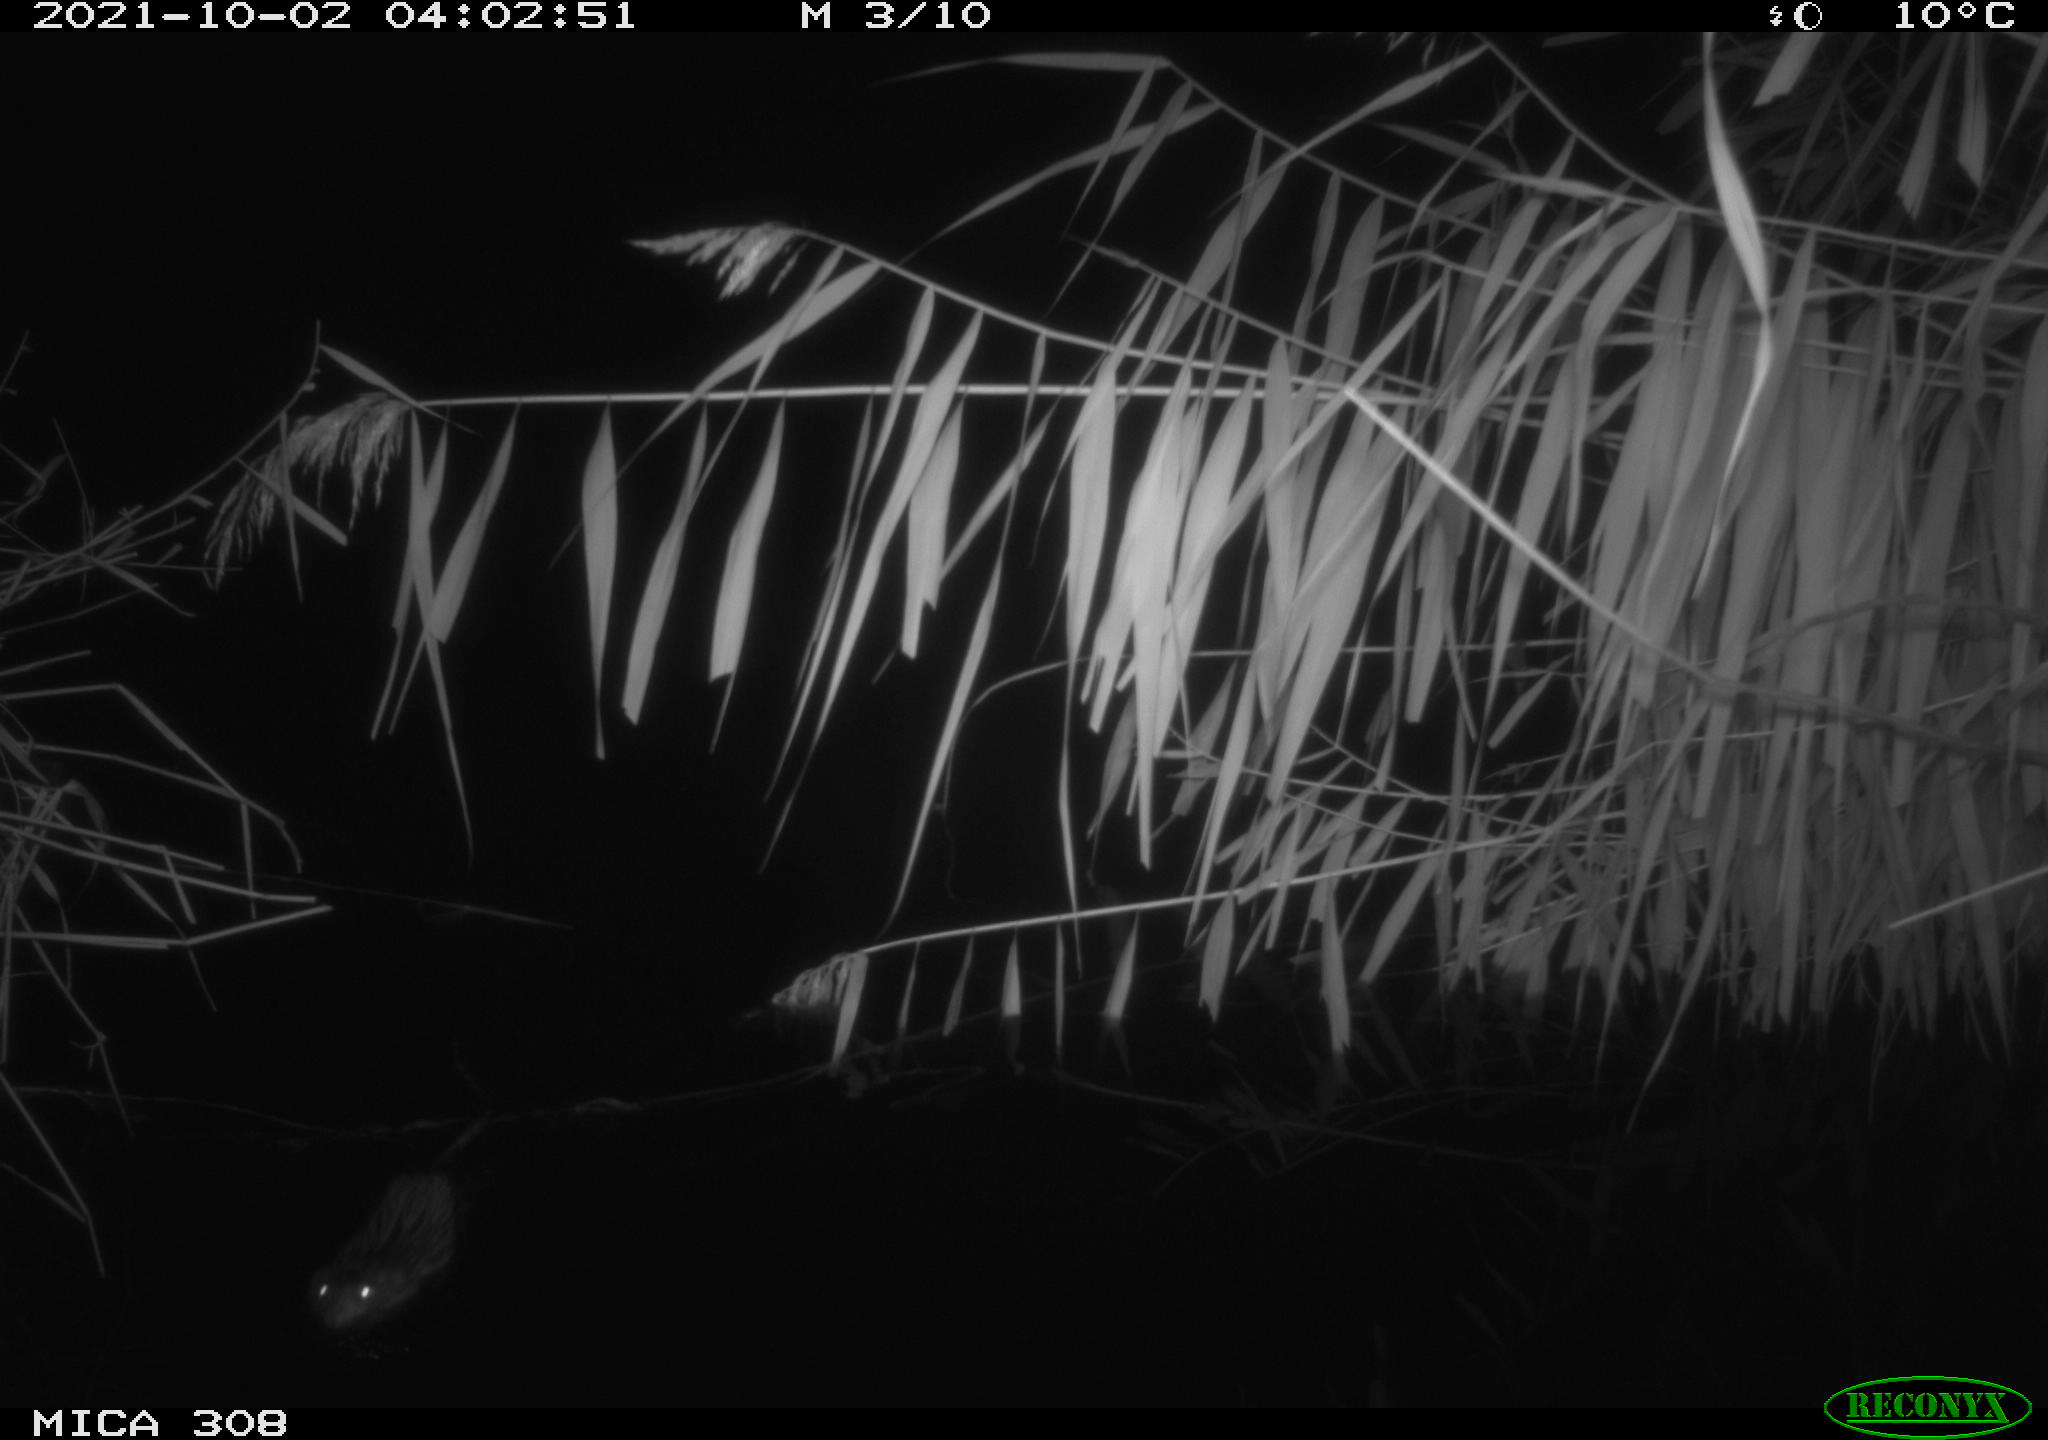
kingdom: Animalia
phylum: Chordata
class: Mammalia
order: Rodentia
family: Cricetidae
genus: Ondatra
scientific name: Ondatra zibethicus
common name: Muskrat
